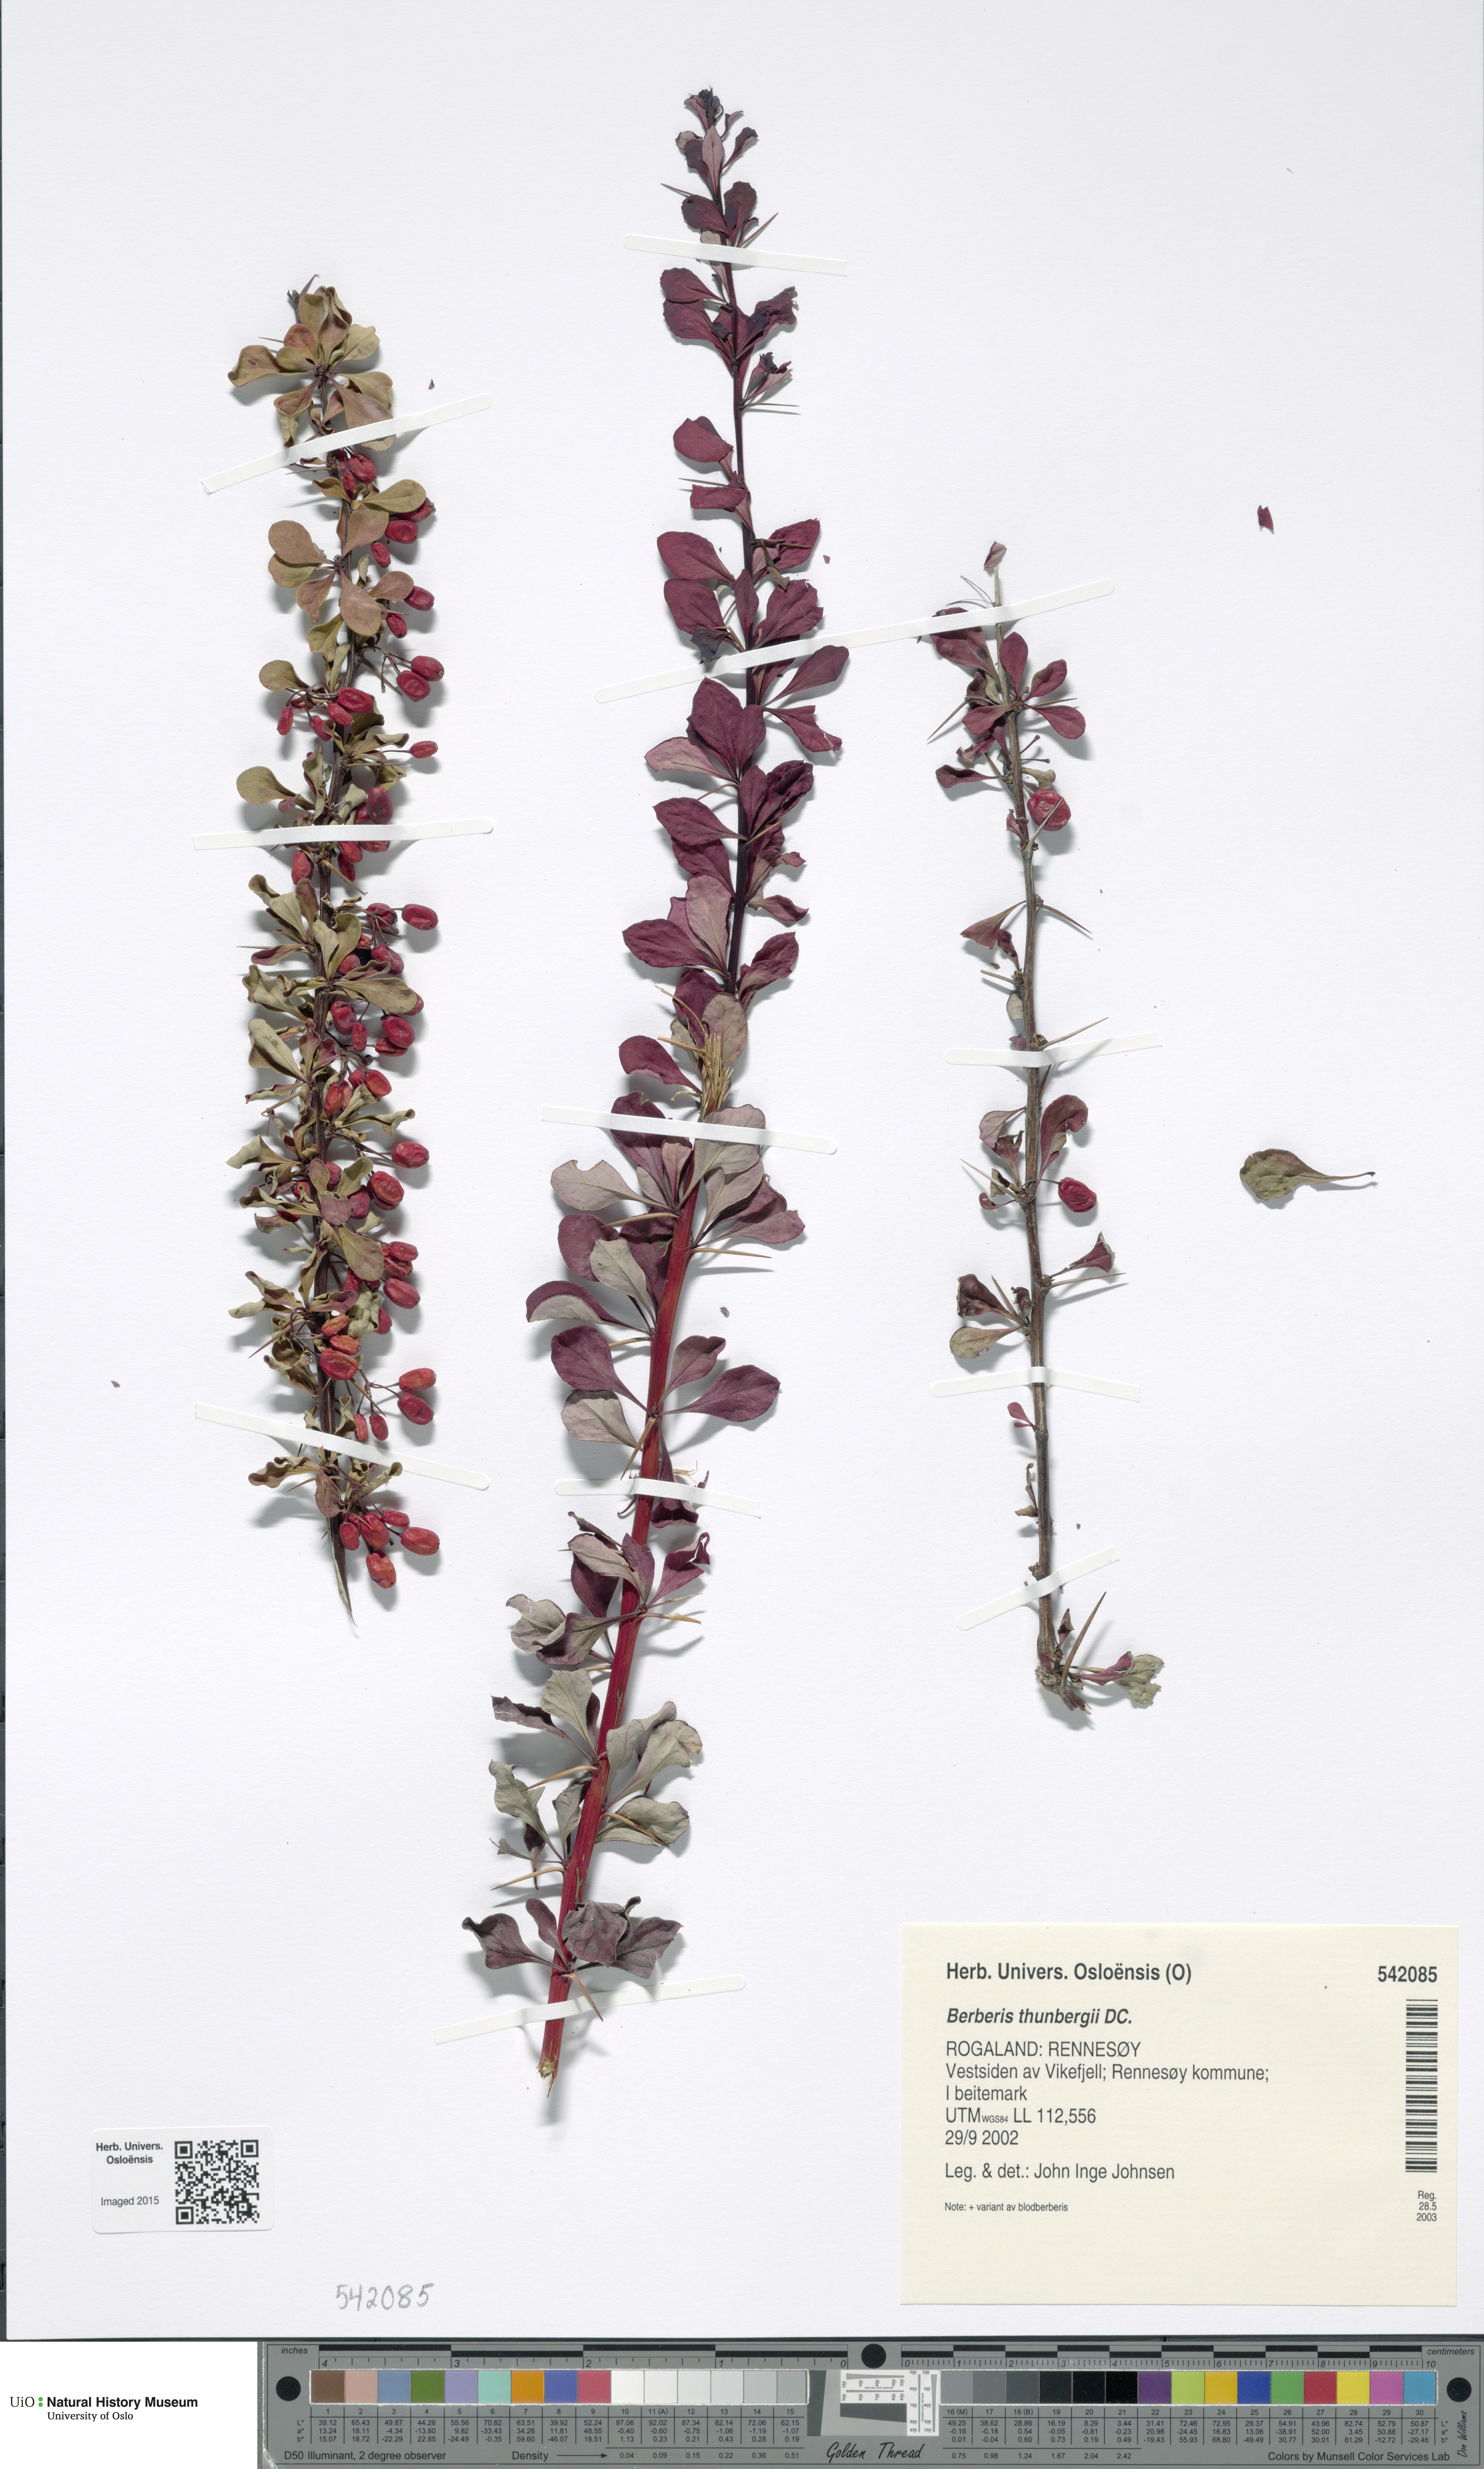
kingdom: Plantae
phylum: Tracheophyta
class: Magnoliopsida
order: Ranunculales
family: Berberidaceae
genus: Berberis
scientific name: Berberis thunbergii
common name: Japanese barberry
